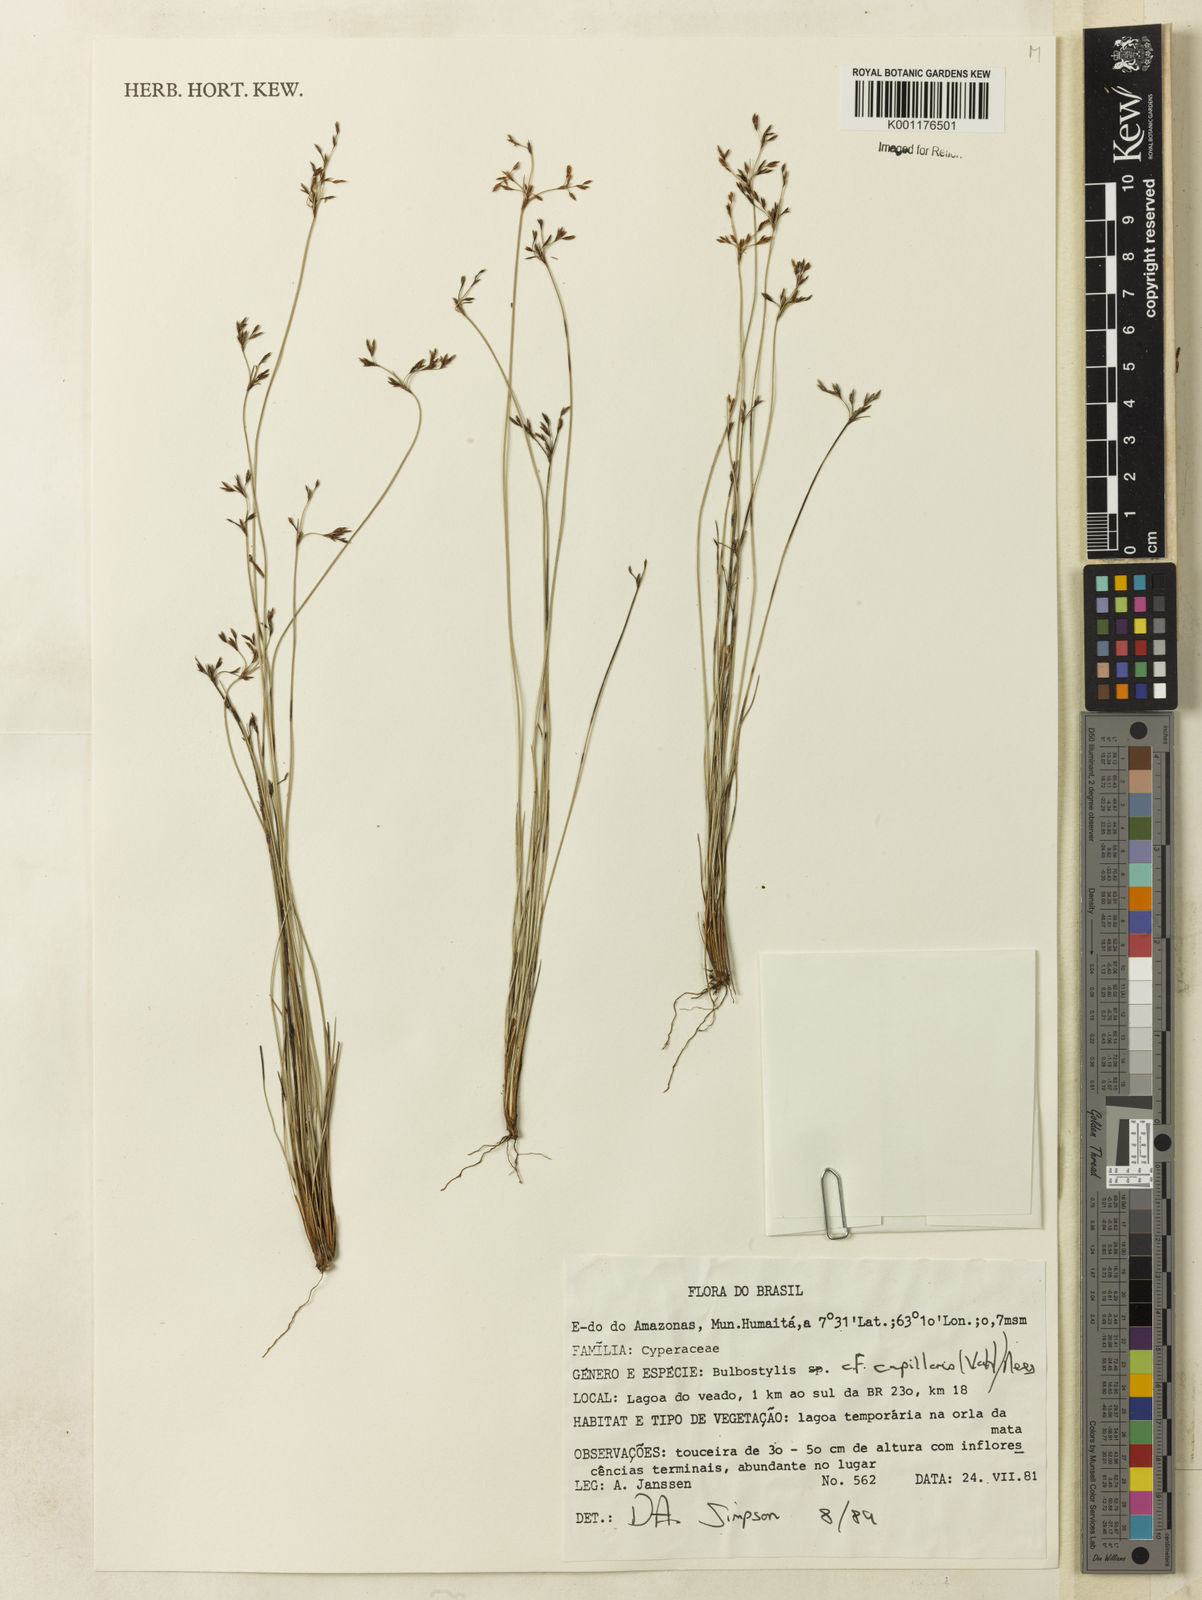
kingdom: Plantae
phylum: Tracheophyta
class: Liliopsida
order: Poales
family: Cyperaceae
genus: Bulbostylis
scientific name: Bulbostylis capillaris
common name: Densetuft hairsedge
